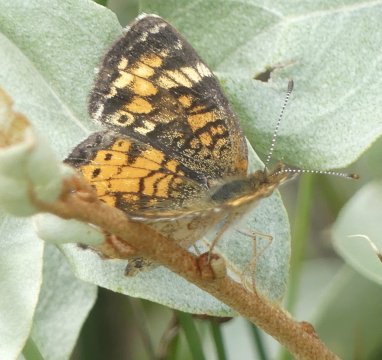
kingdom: Animalia
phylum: Arthropoda
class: Insecta
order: Lepidoptera
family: Nymphalidae
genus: Phyciodes
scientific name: Phyciodes
